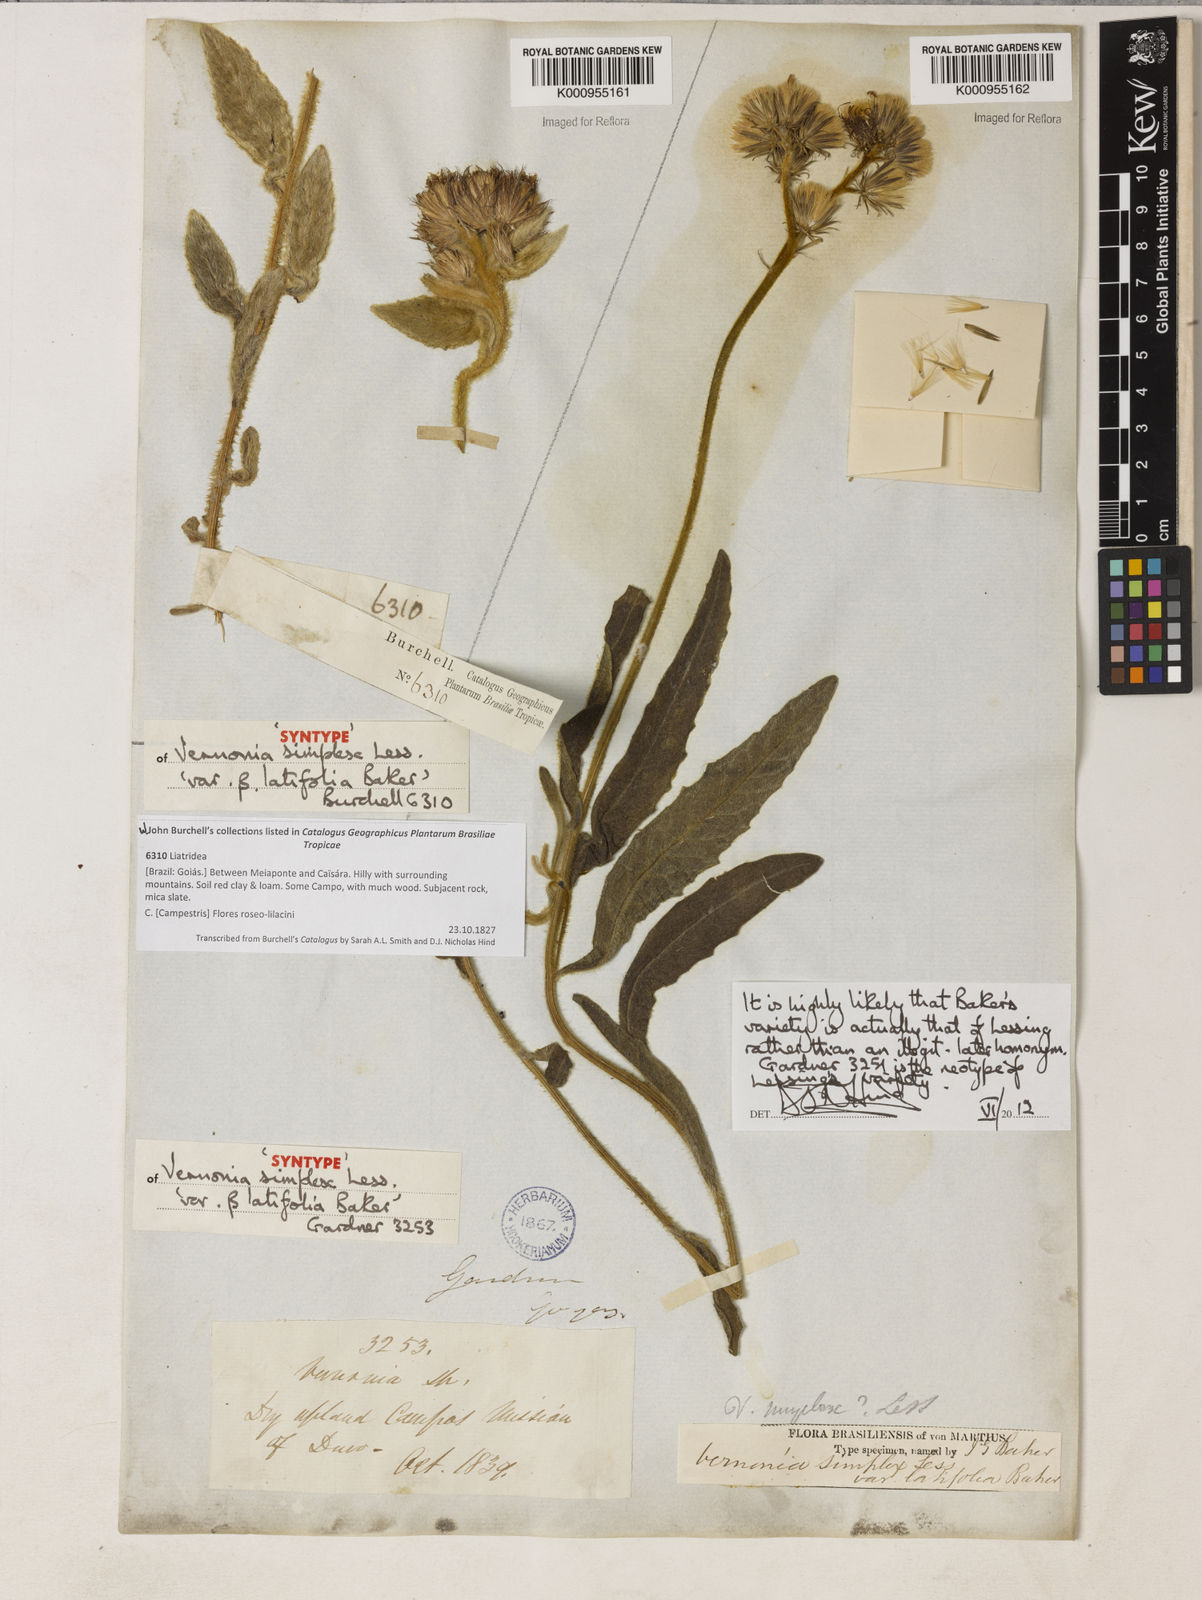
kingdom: Plantae
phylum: Tracheophyta
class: Magnoliopsida
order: Asterales
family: Asteraceae
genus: Chrysolaena
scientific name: Chrysolaena simplex
